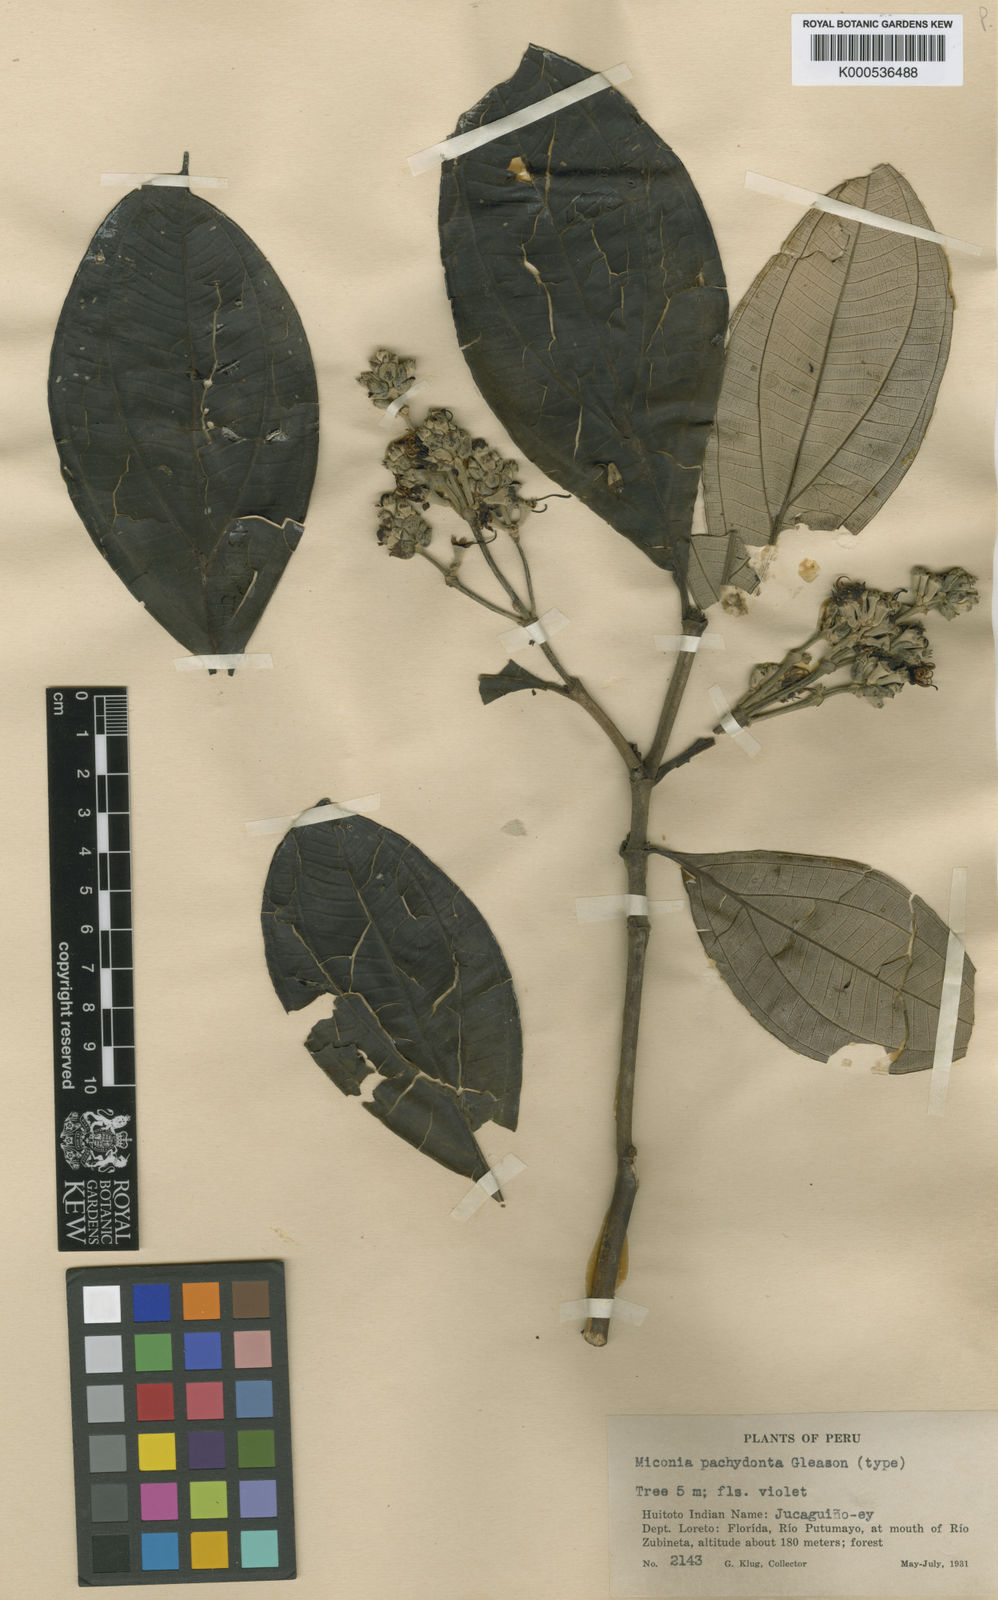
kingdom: Plantae
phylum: Tracheophyta
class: Magnoliopsida
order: Myrtales
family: Melastomataceae
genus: Miconia
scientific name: Miconia pachydonta
